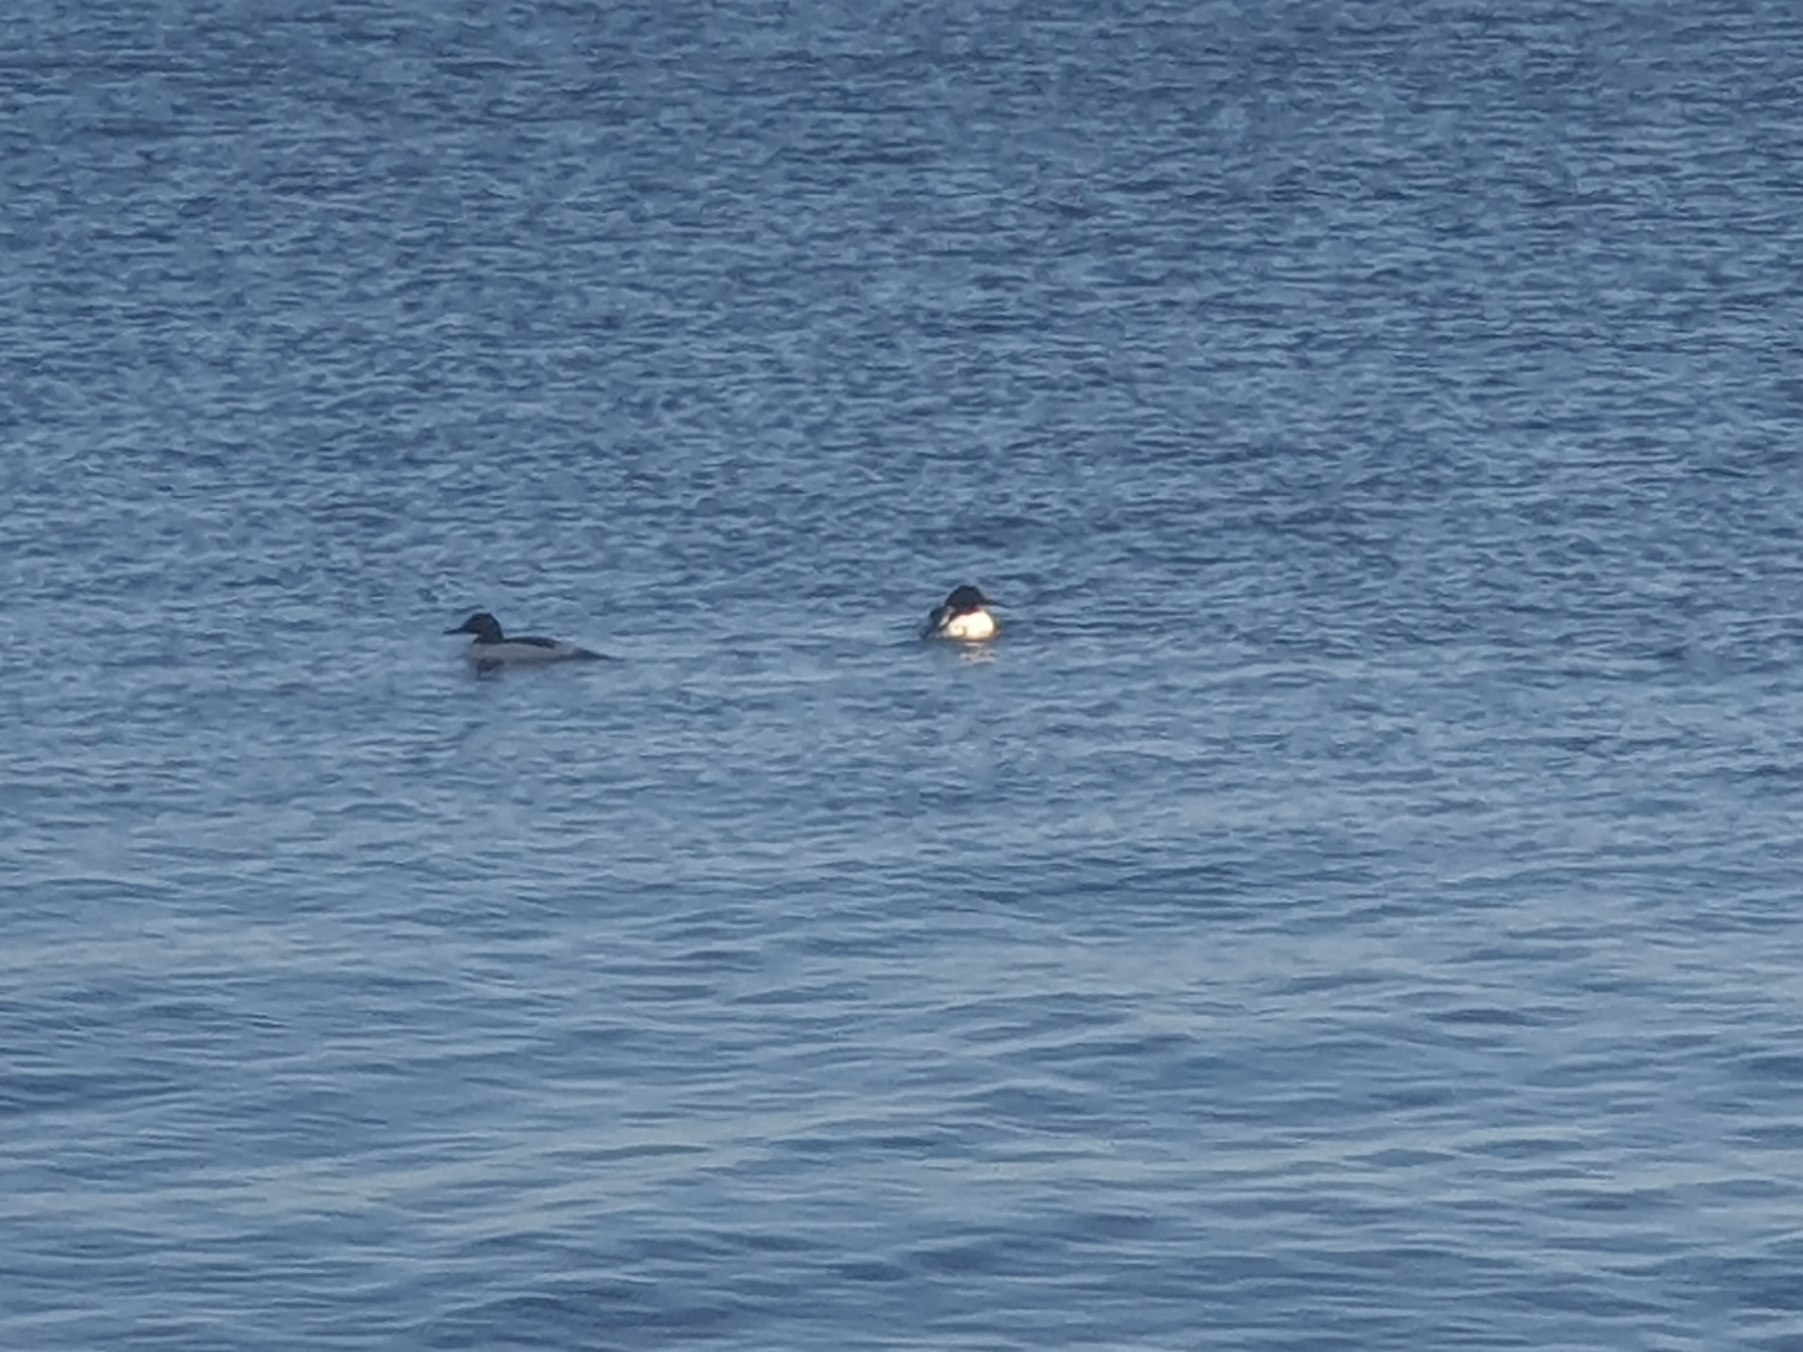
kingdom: Animalia
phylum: Chordata
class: Aves
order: Anseriformes
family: Anatidae
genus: Mergus
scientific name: Mergus merganser
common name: Stor skallesluger
